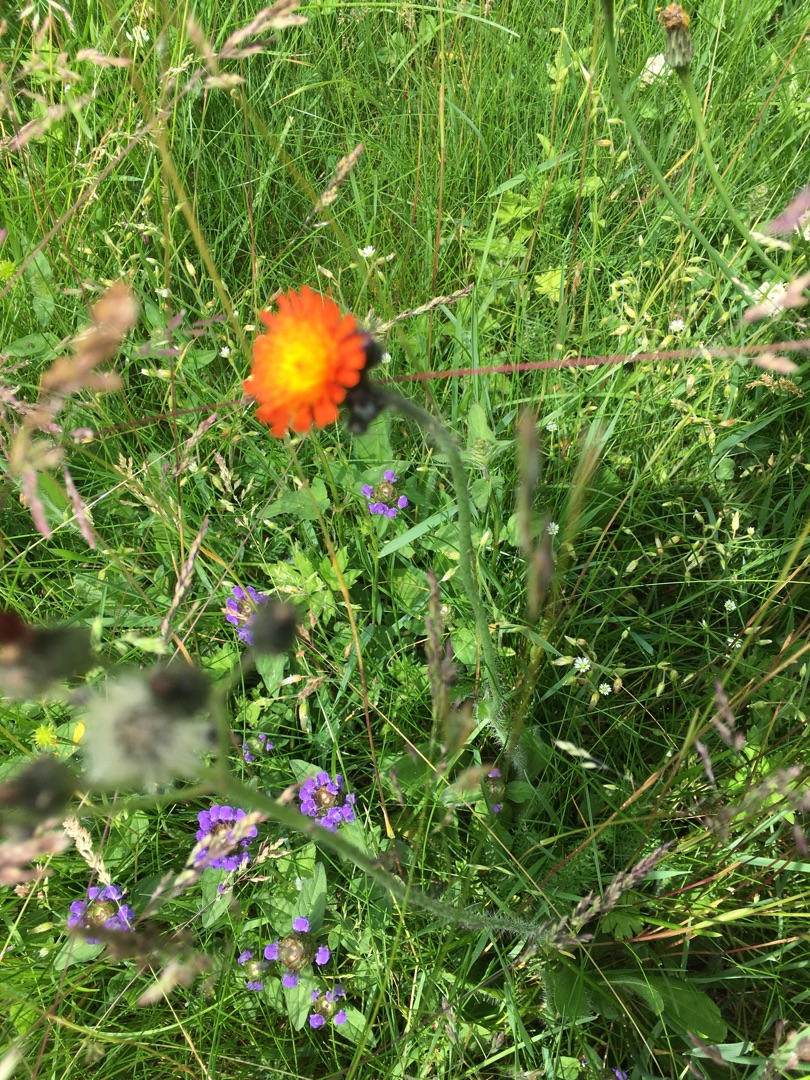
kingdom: Plantae
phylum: Tracheophyta
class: Magnoliopsida
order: Asterales
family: Asteraceae
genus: Pilosella
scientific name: Pilosella aurantiaca
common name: Pomerans-høgeurt
